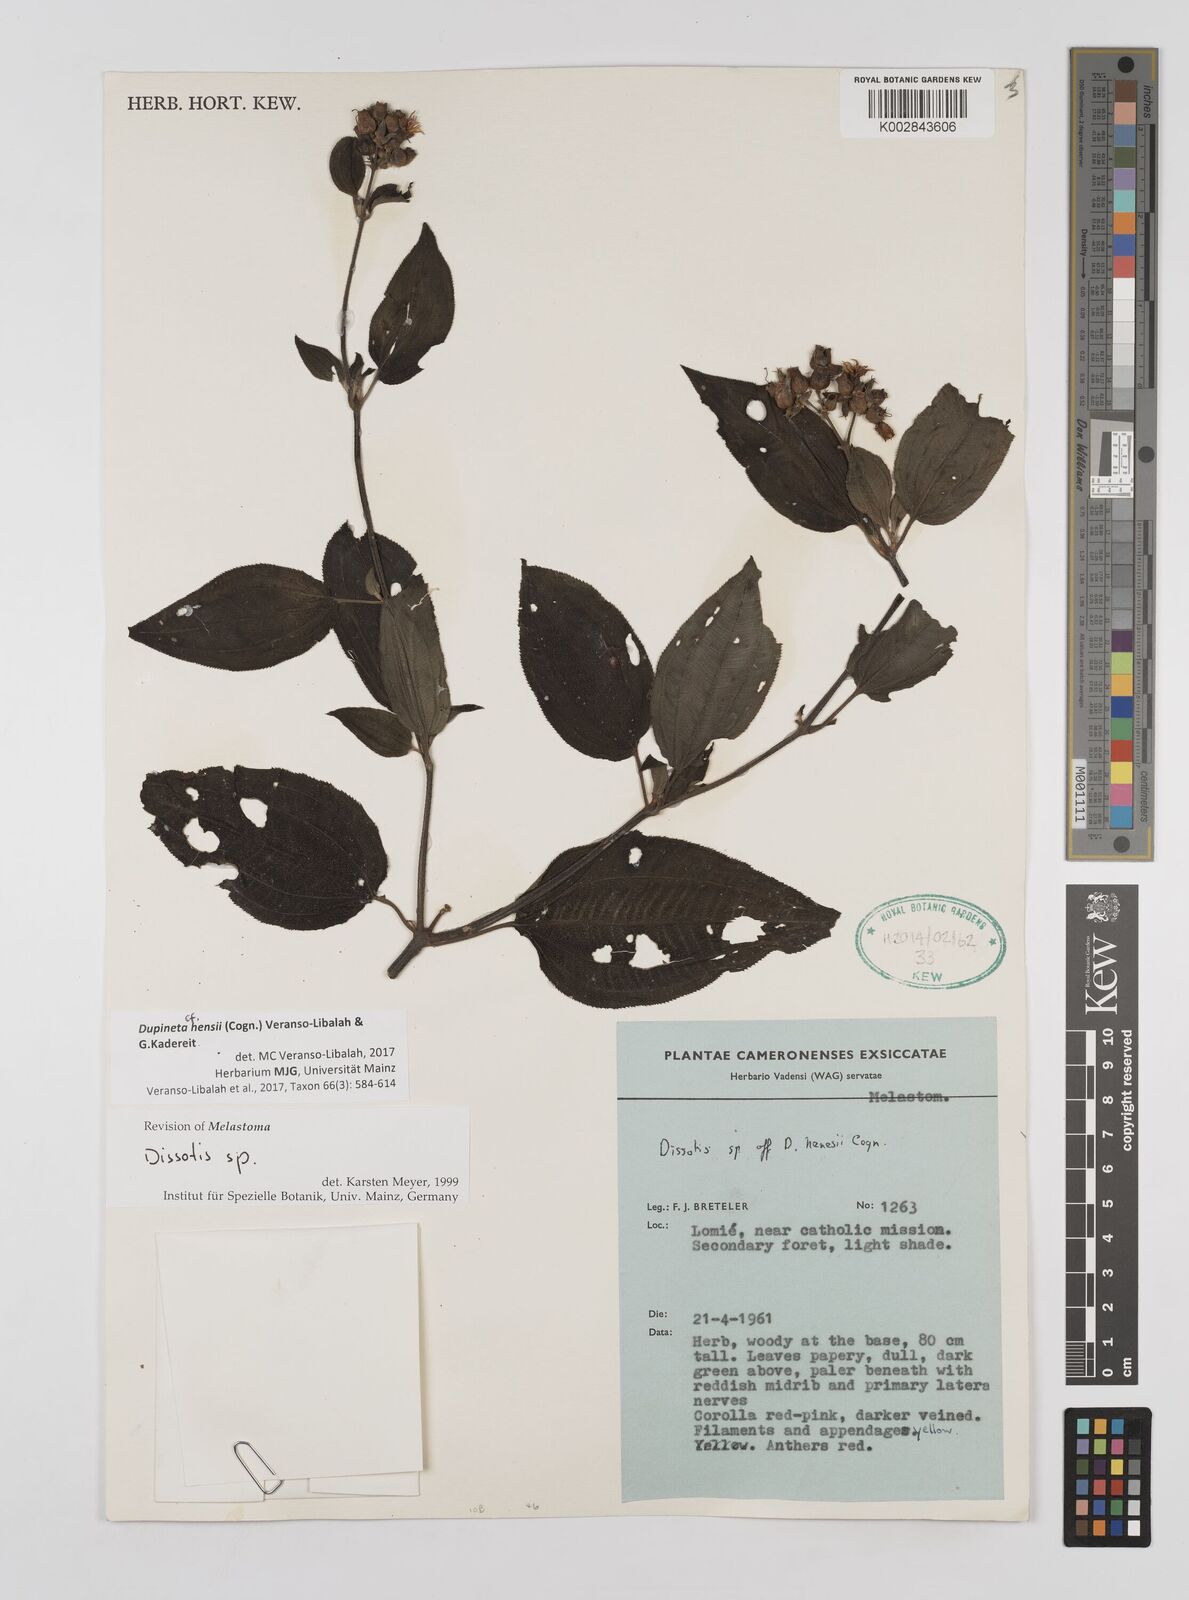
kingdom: Plantae
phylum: Tracheophyta
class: Magnoliopsida
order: Myrtales
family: Melastomataceae
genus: Dupineta
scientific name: Dupineta hensii
